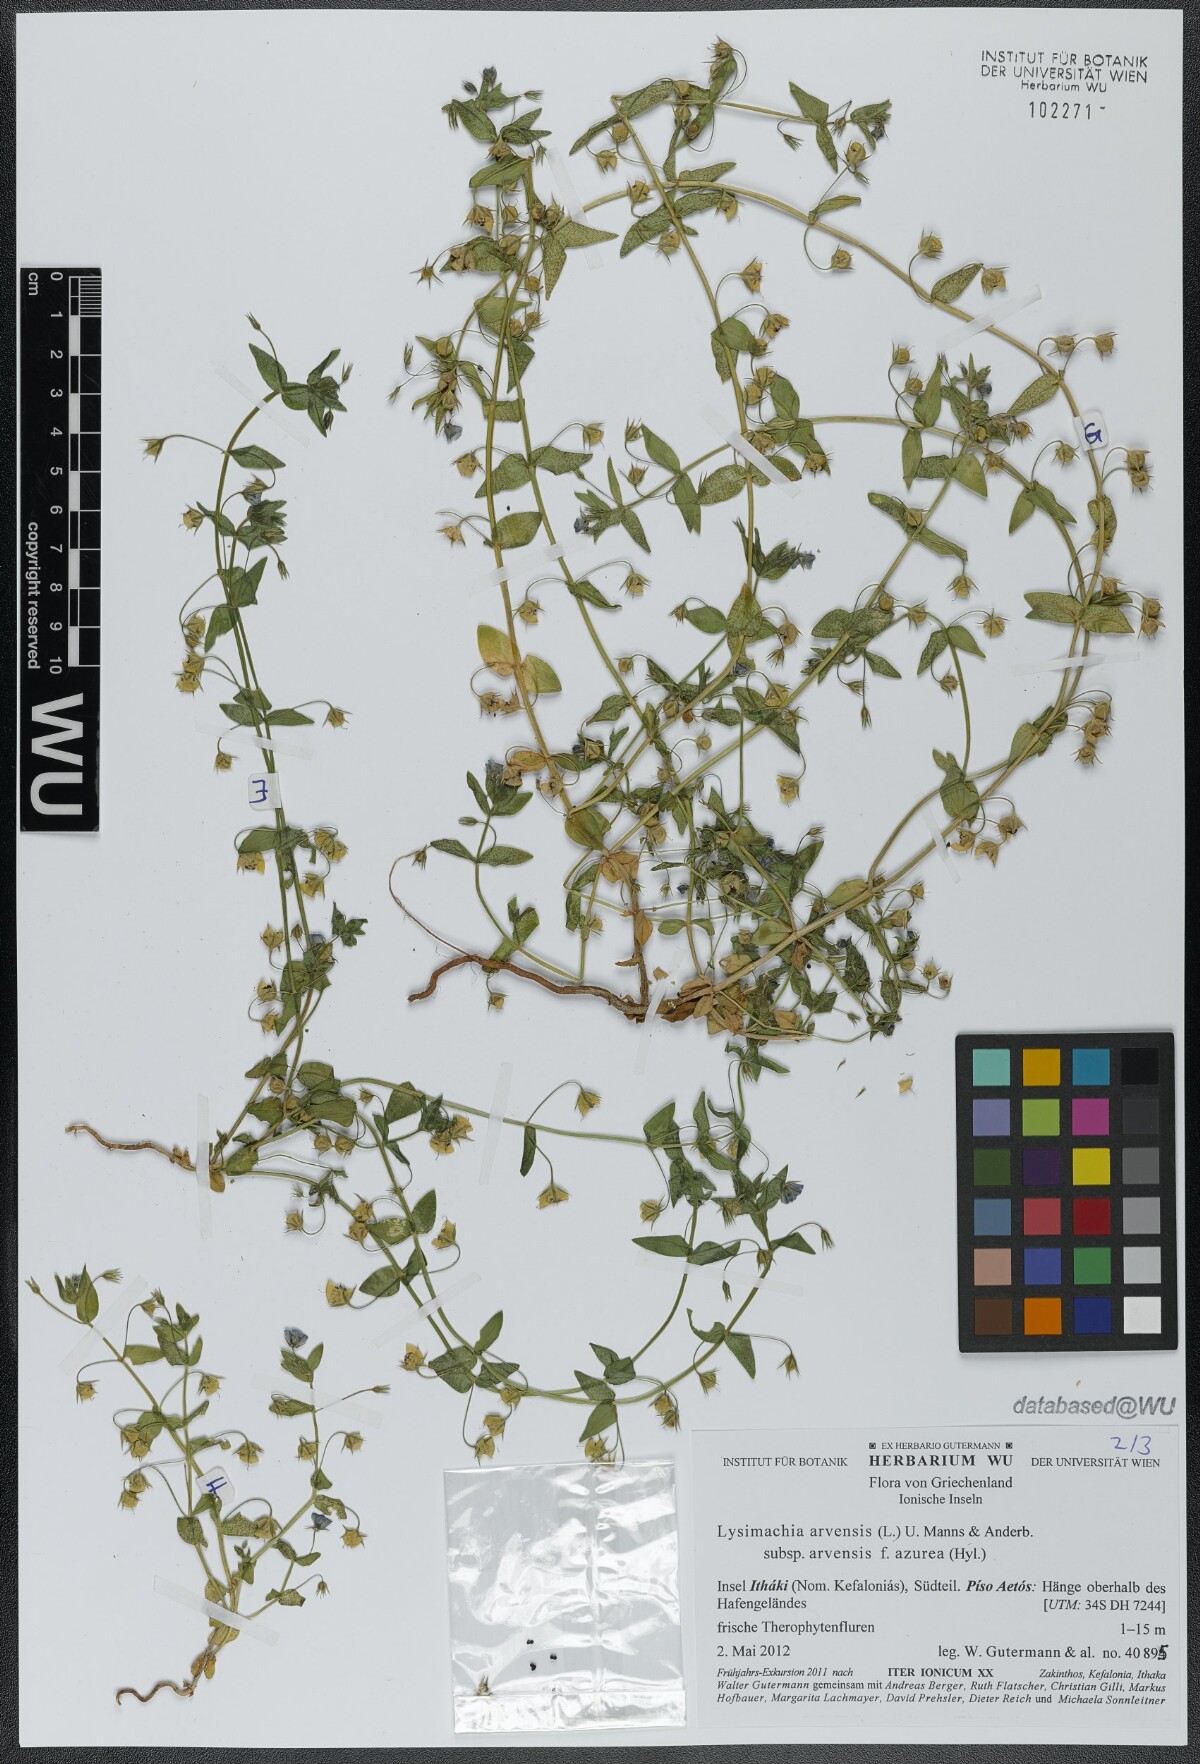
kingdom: Plantae
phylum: Tracheophyta
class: Magnoliopsida
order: Ericales
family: Primulaceae
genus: Lysimachia
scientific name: Lysimachia arvensis
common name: Scarlet pimpernel
